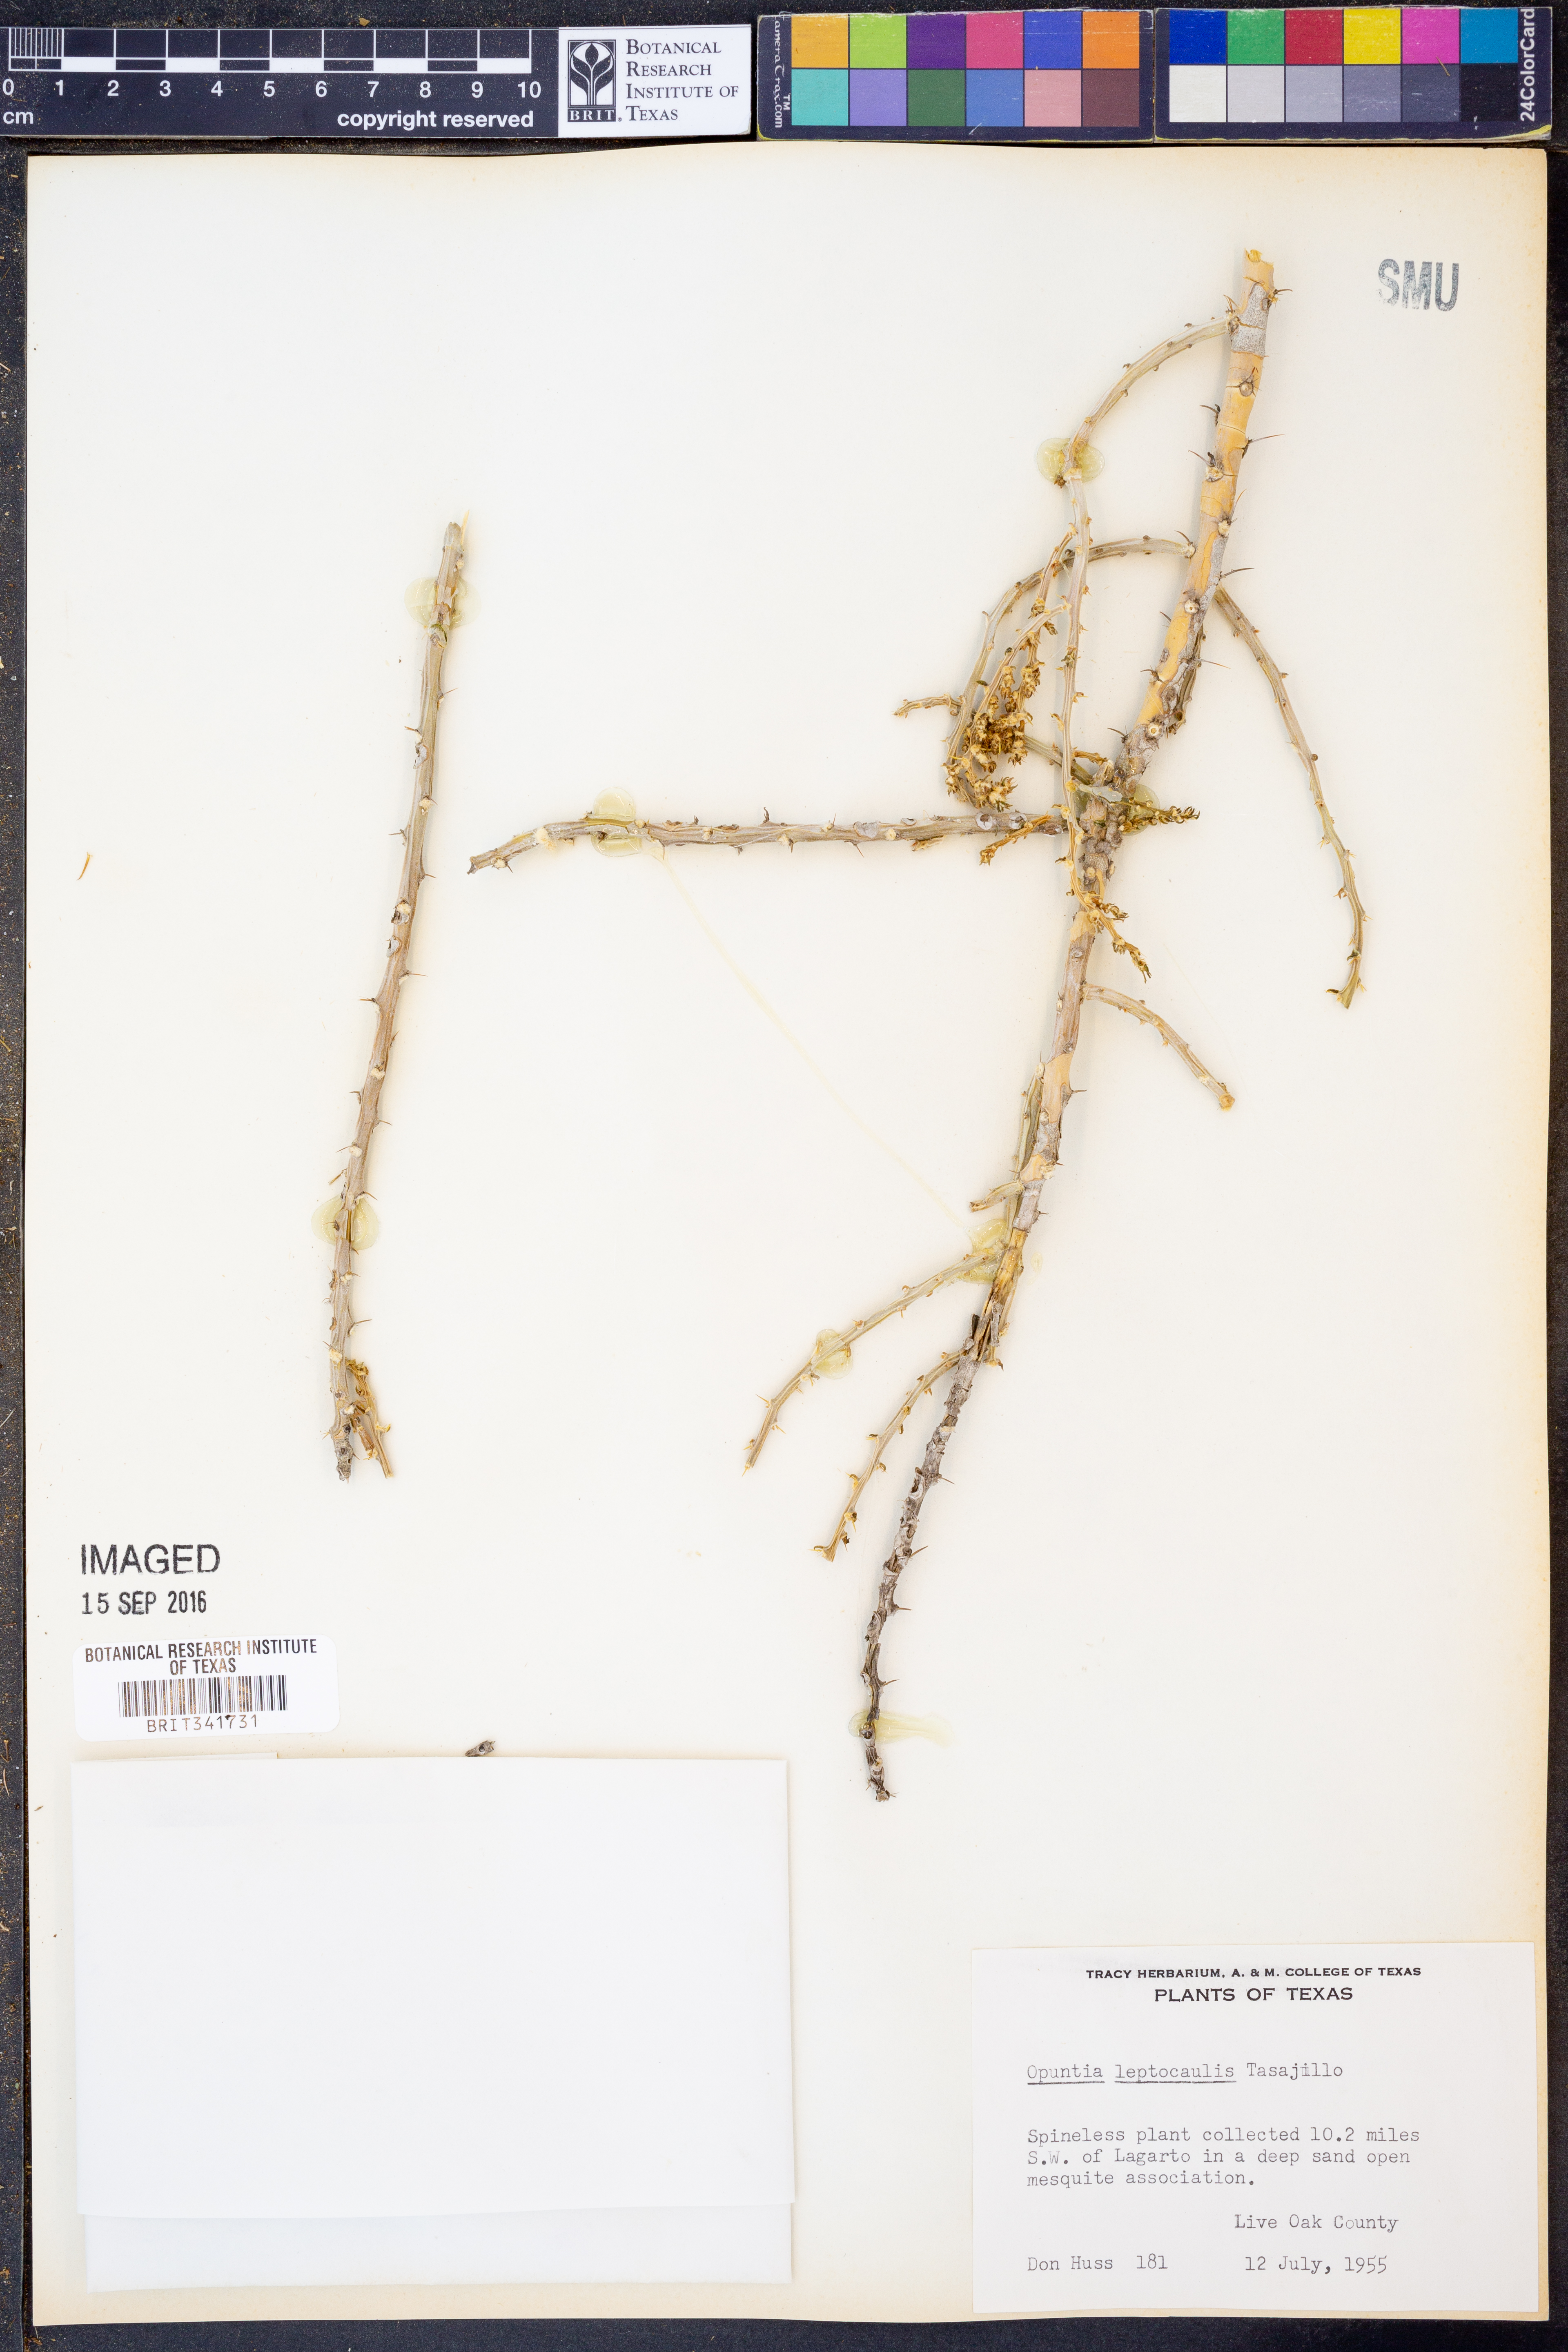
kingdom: Plantae
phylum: Tracheophyta
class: Magnoliopsida
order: Caryophyllales
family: Cactaceae
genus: Cylindropuntia
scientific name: Cylindropuntia leptocaulis
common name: Christmas cactus
